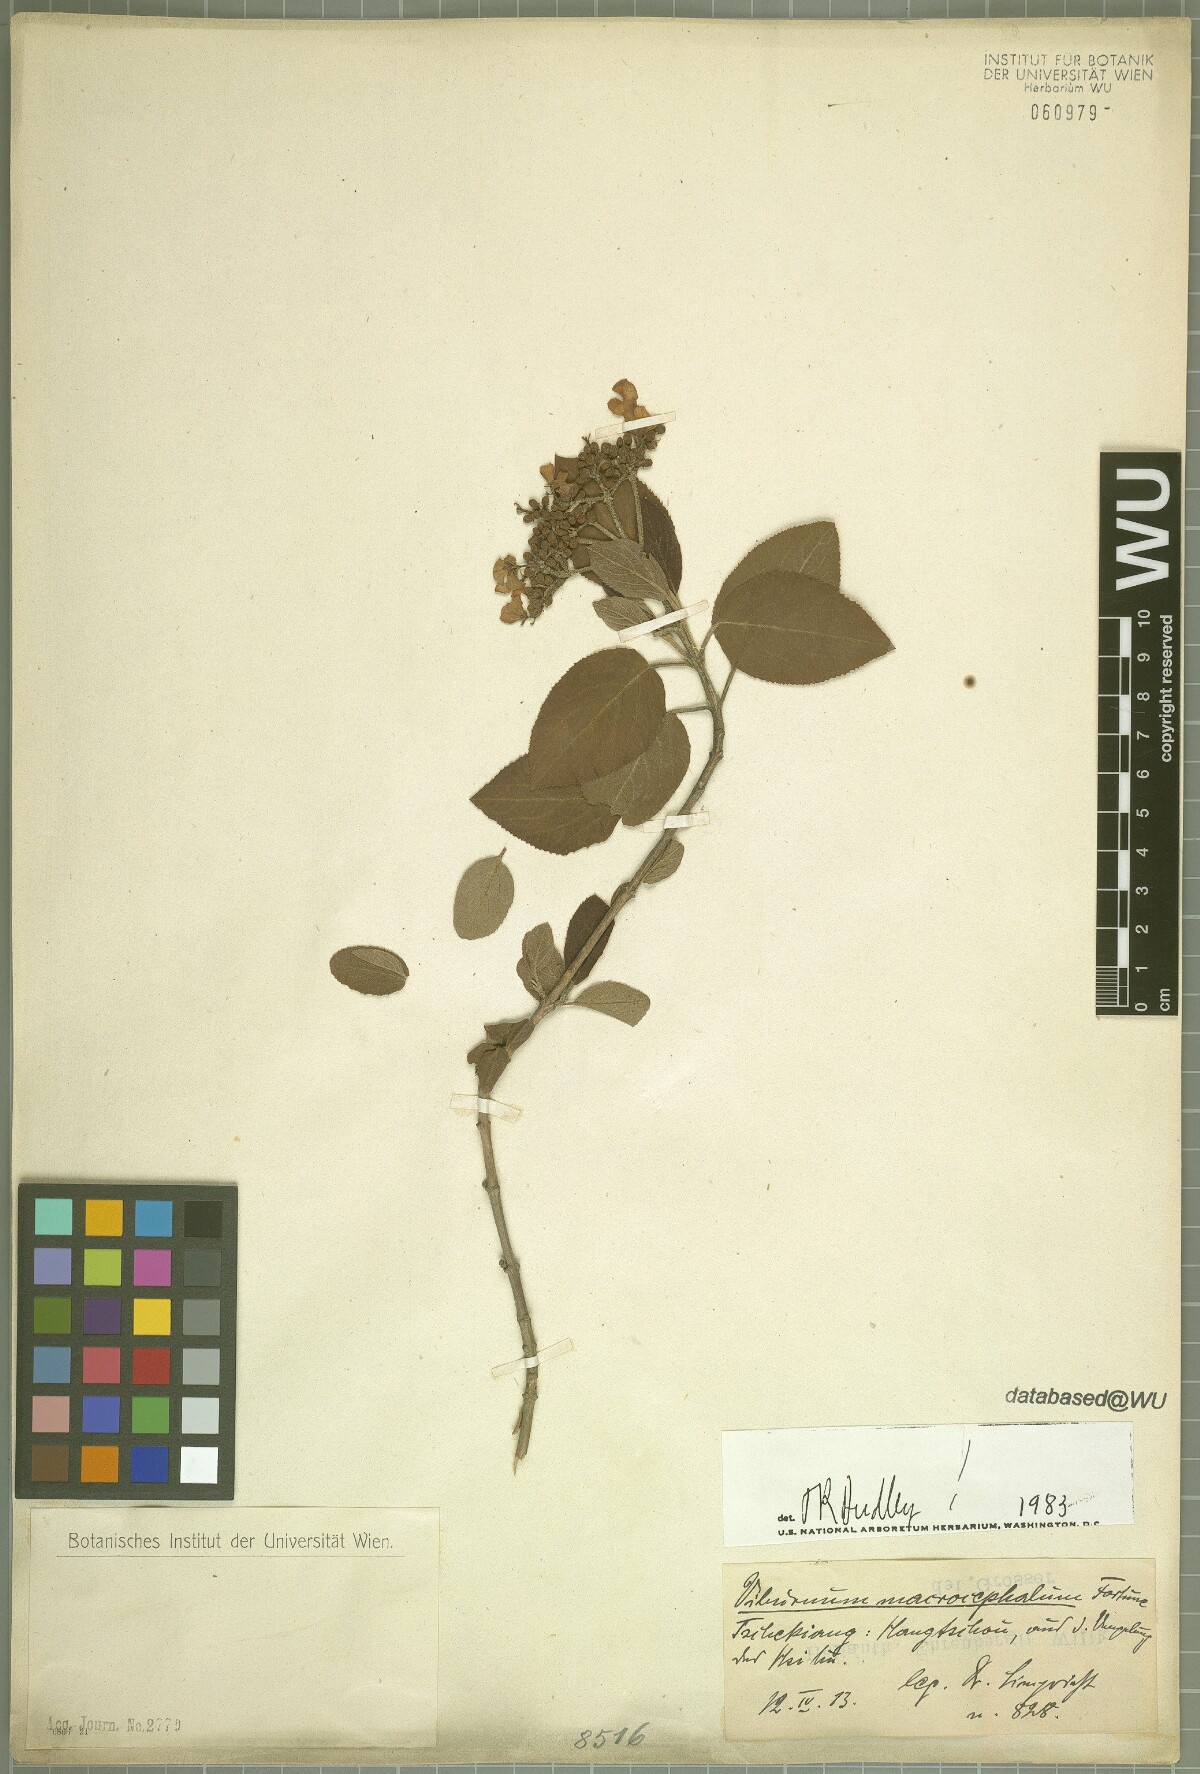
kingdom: Plantae
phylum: Tracheophyta
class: Magnoliopsida
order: Dipsacales
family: Viburnaceae
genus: Viburnum
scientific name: Viburnum macrocephalum
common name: Chinese snowball viburnum
